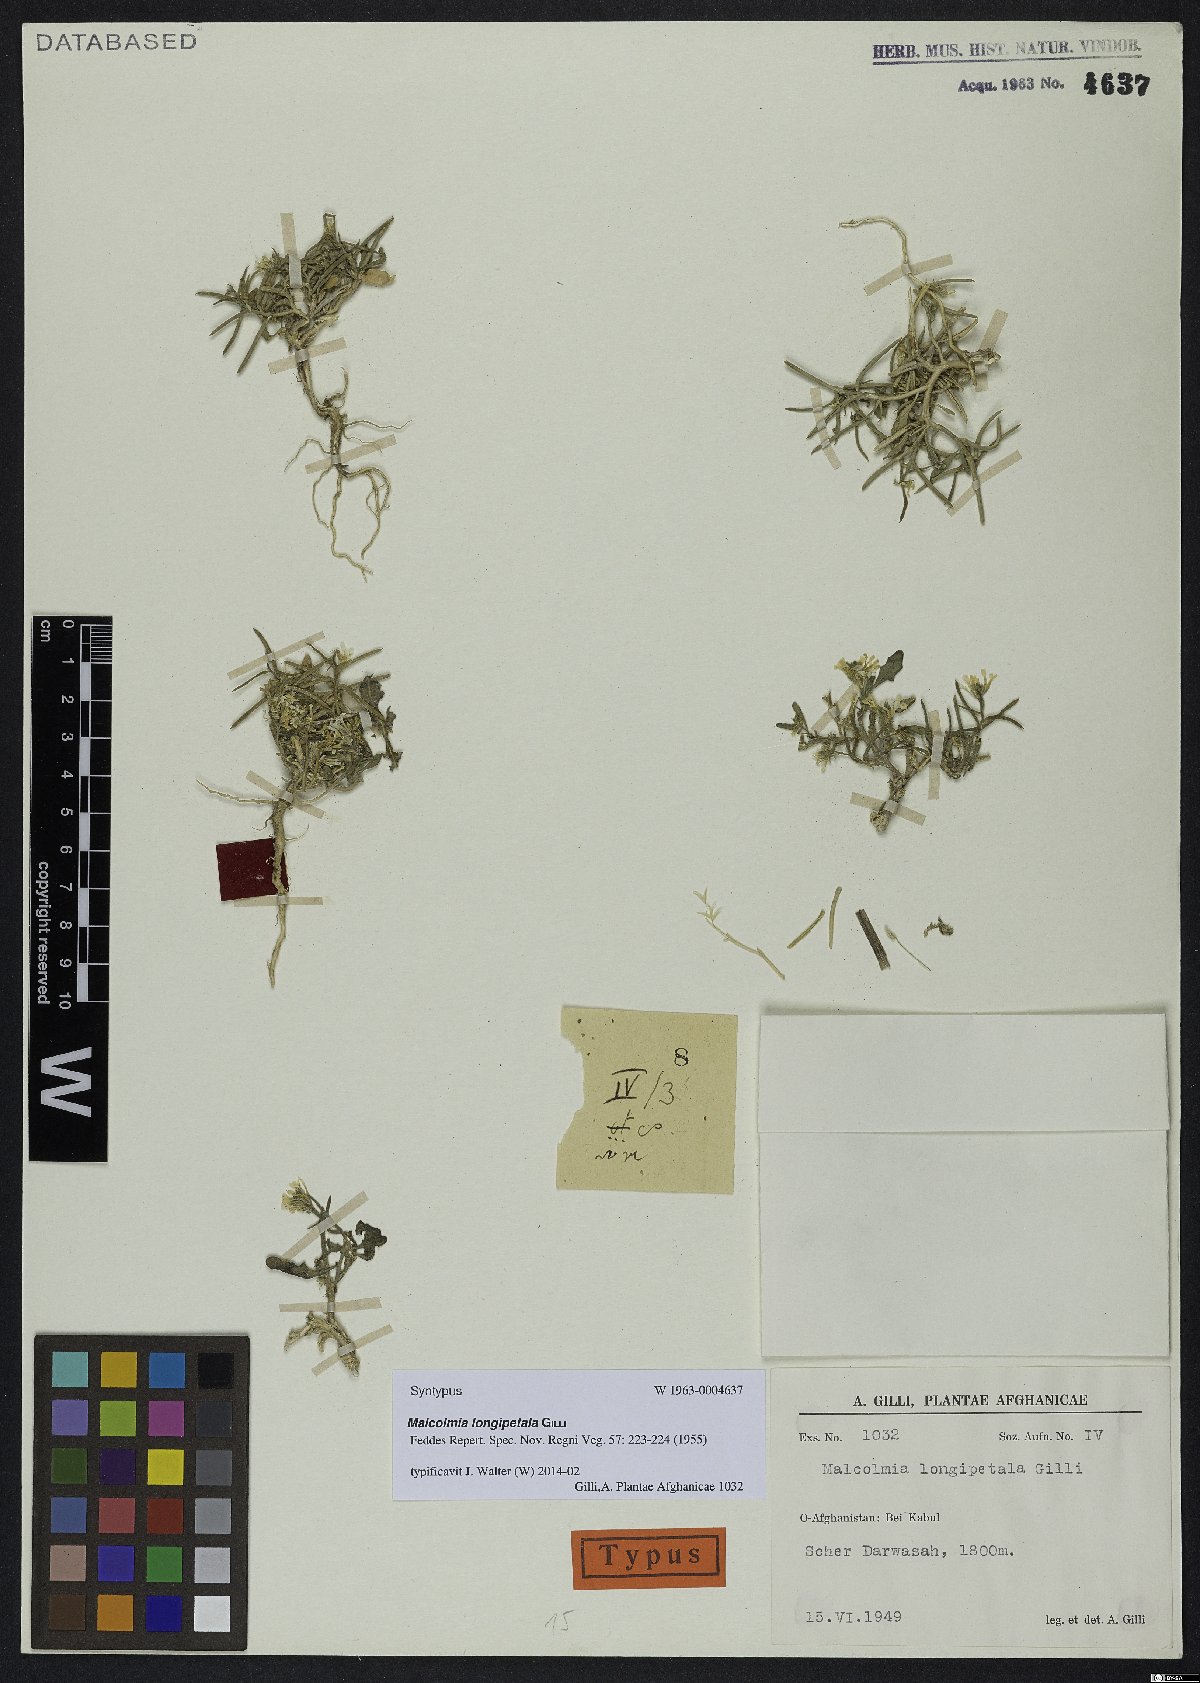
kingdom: Plantae
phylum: Tracheophyta
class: Magnoliopsida
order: Brassicales
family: Brassicaceae
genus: Strigosella
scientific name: Strigosella longipetala
